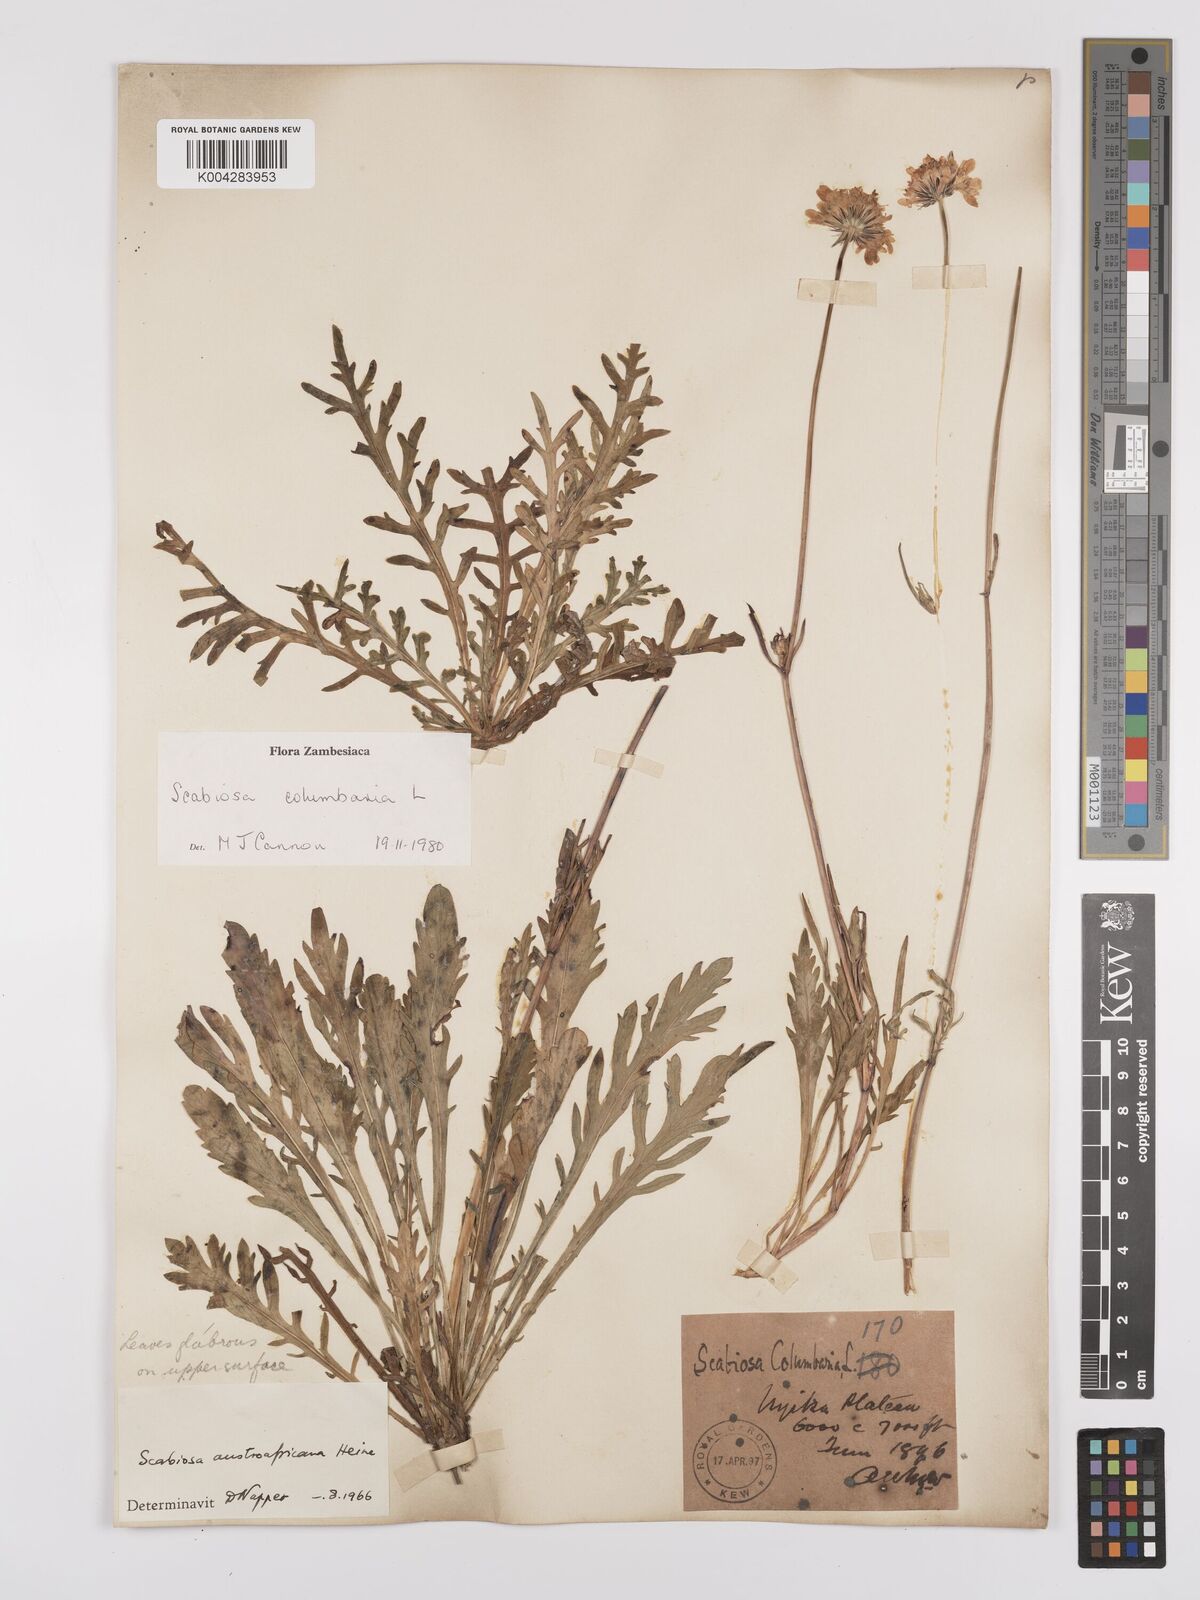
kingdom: Plantae
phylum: Tracheophyta
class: Magnoliopsida
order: Dipsacales
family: Caprifoliaceae
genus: Scabiosa
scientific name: Scabiosa austroafricana
